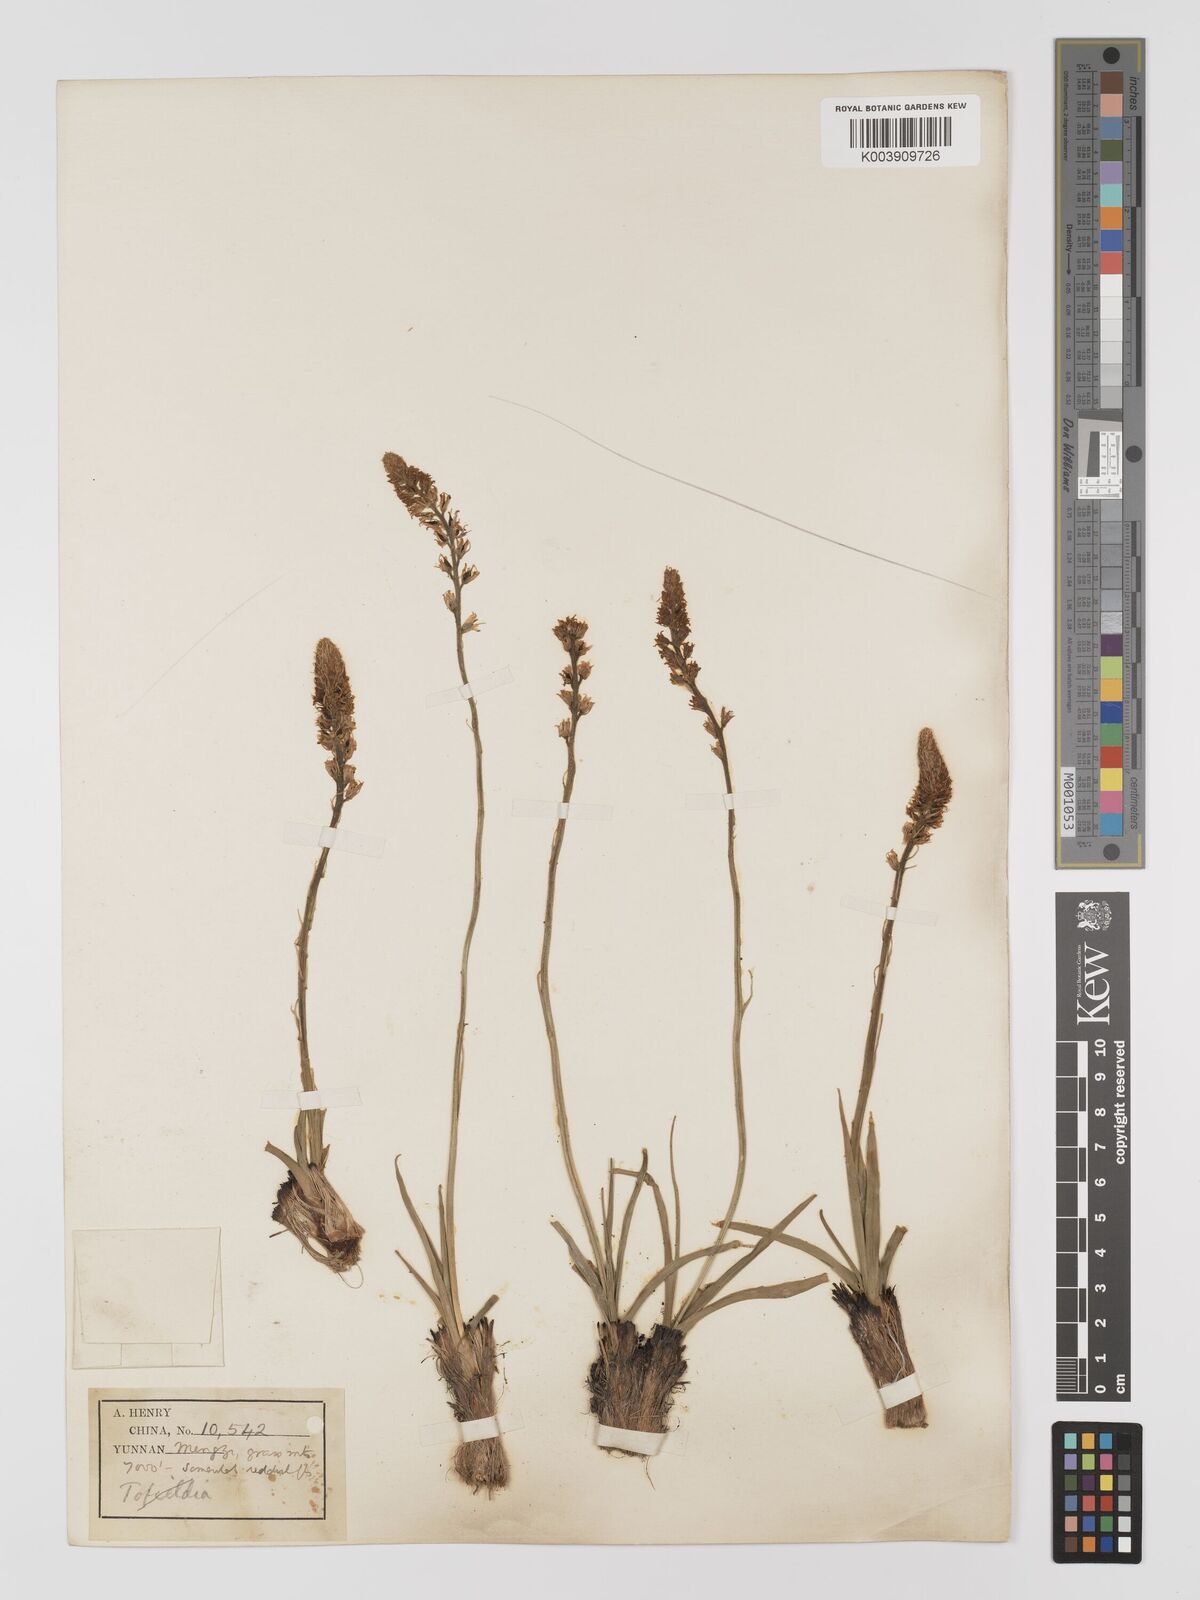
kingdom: Plantae
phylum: Tracheophyta
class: Liliopsida
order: Dioscoreales
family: Nartheciaceae
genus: Aletris
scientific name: Aletris pauciflora
